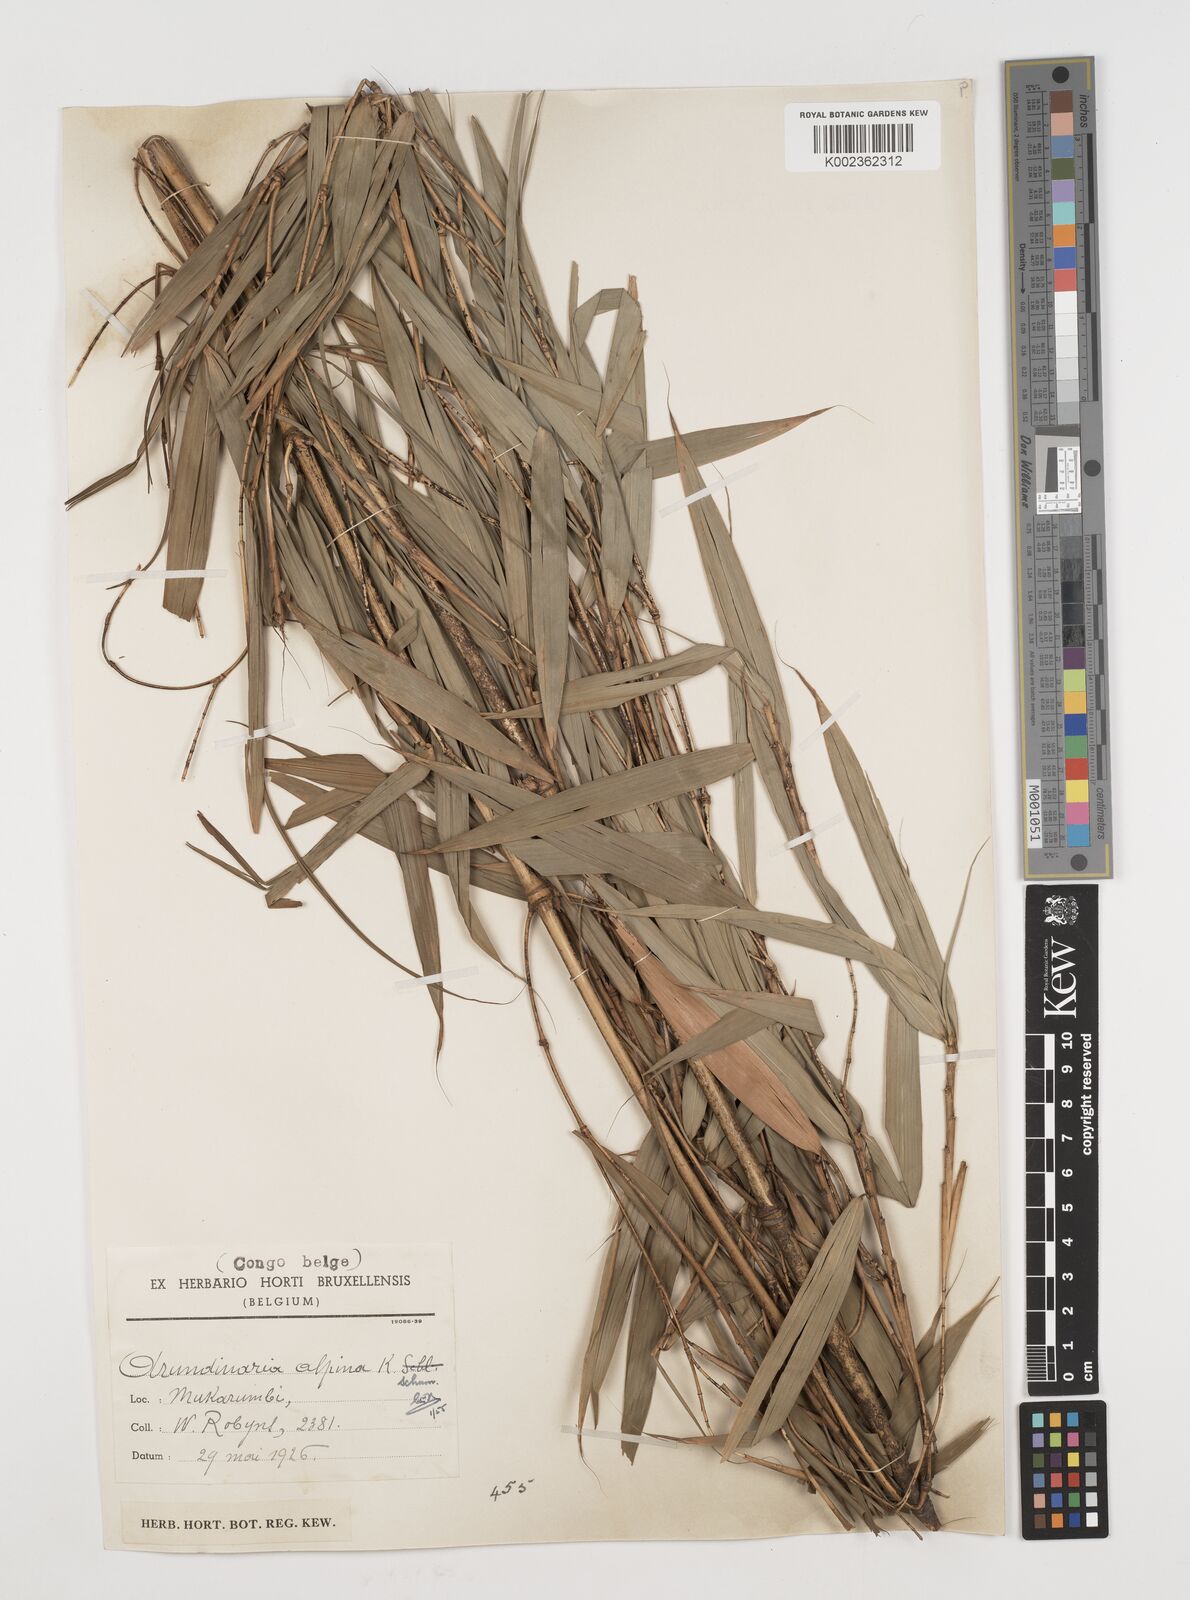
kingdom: Plantae
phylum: Tracheophyta
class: Liliopsida
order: Poales
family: Poaceae
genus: Oldeania
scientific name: Oldeania alpina
